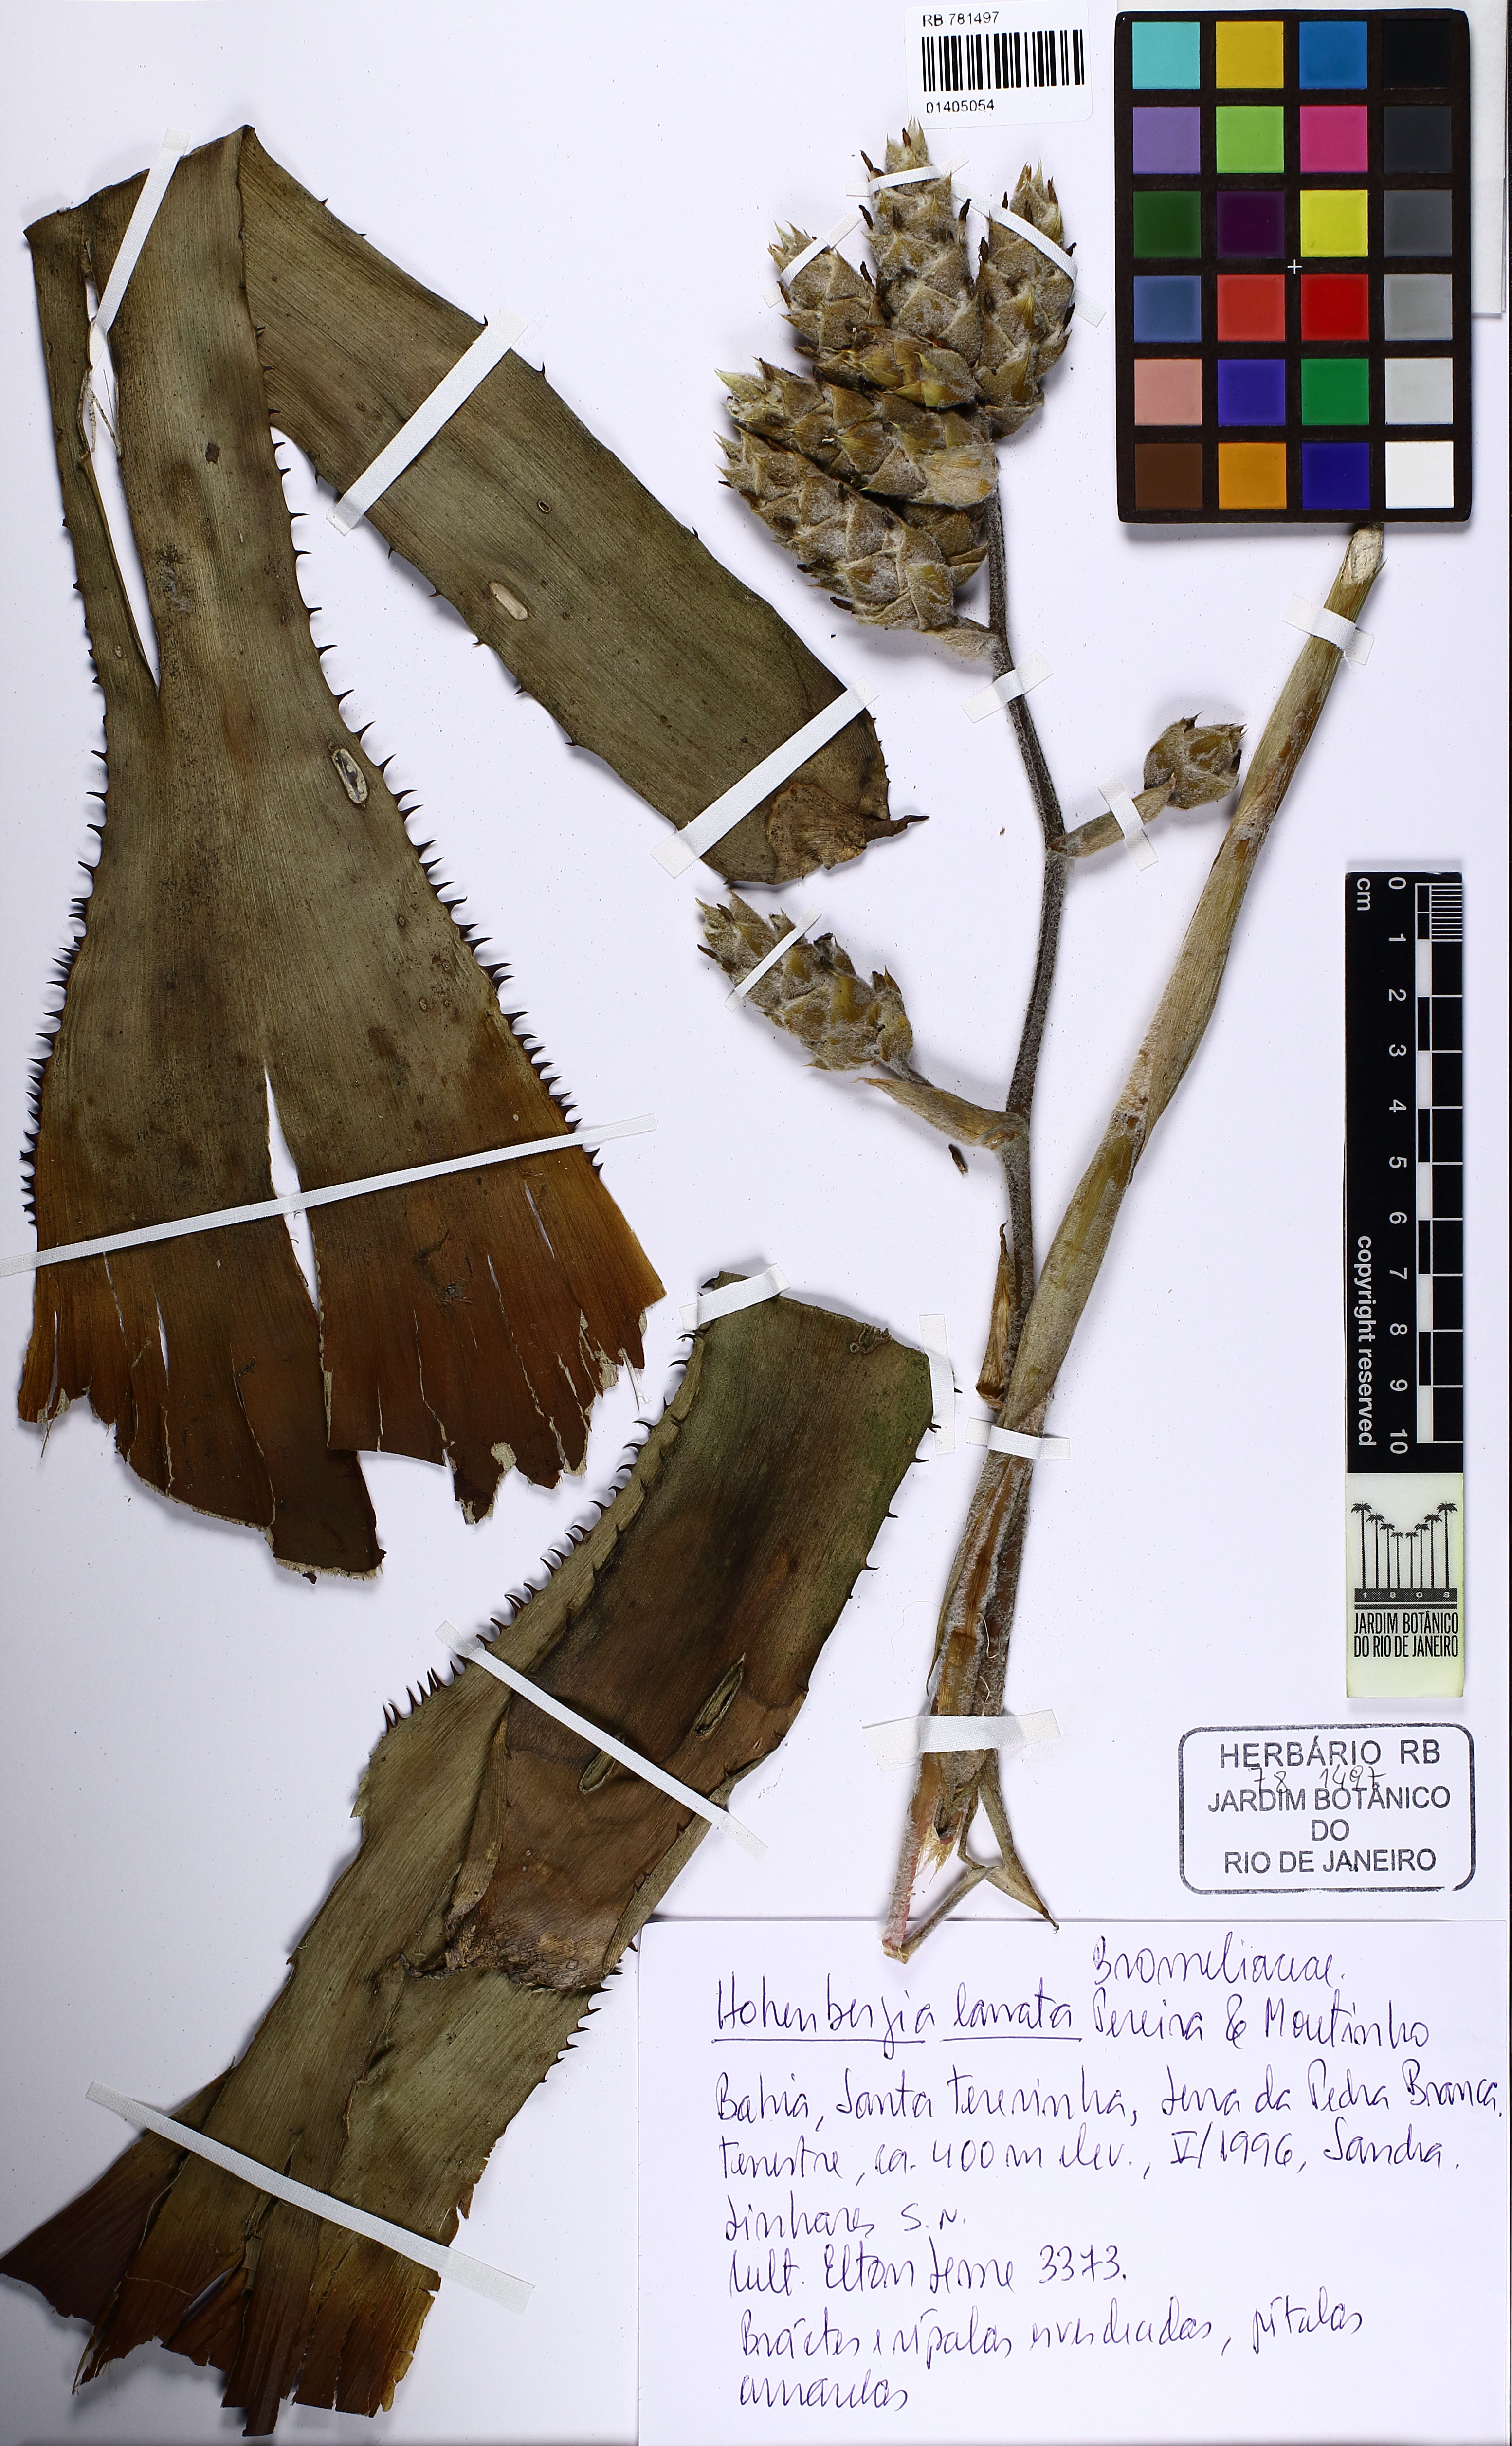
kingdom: Plantae
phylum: Tracheophyta
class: Liliopsida
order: Poales
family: Bromeliaceae
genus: Hohenbergia
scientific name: Hohenbergia lanata
